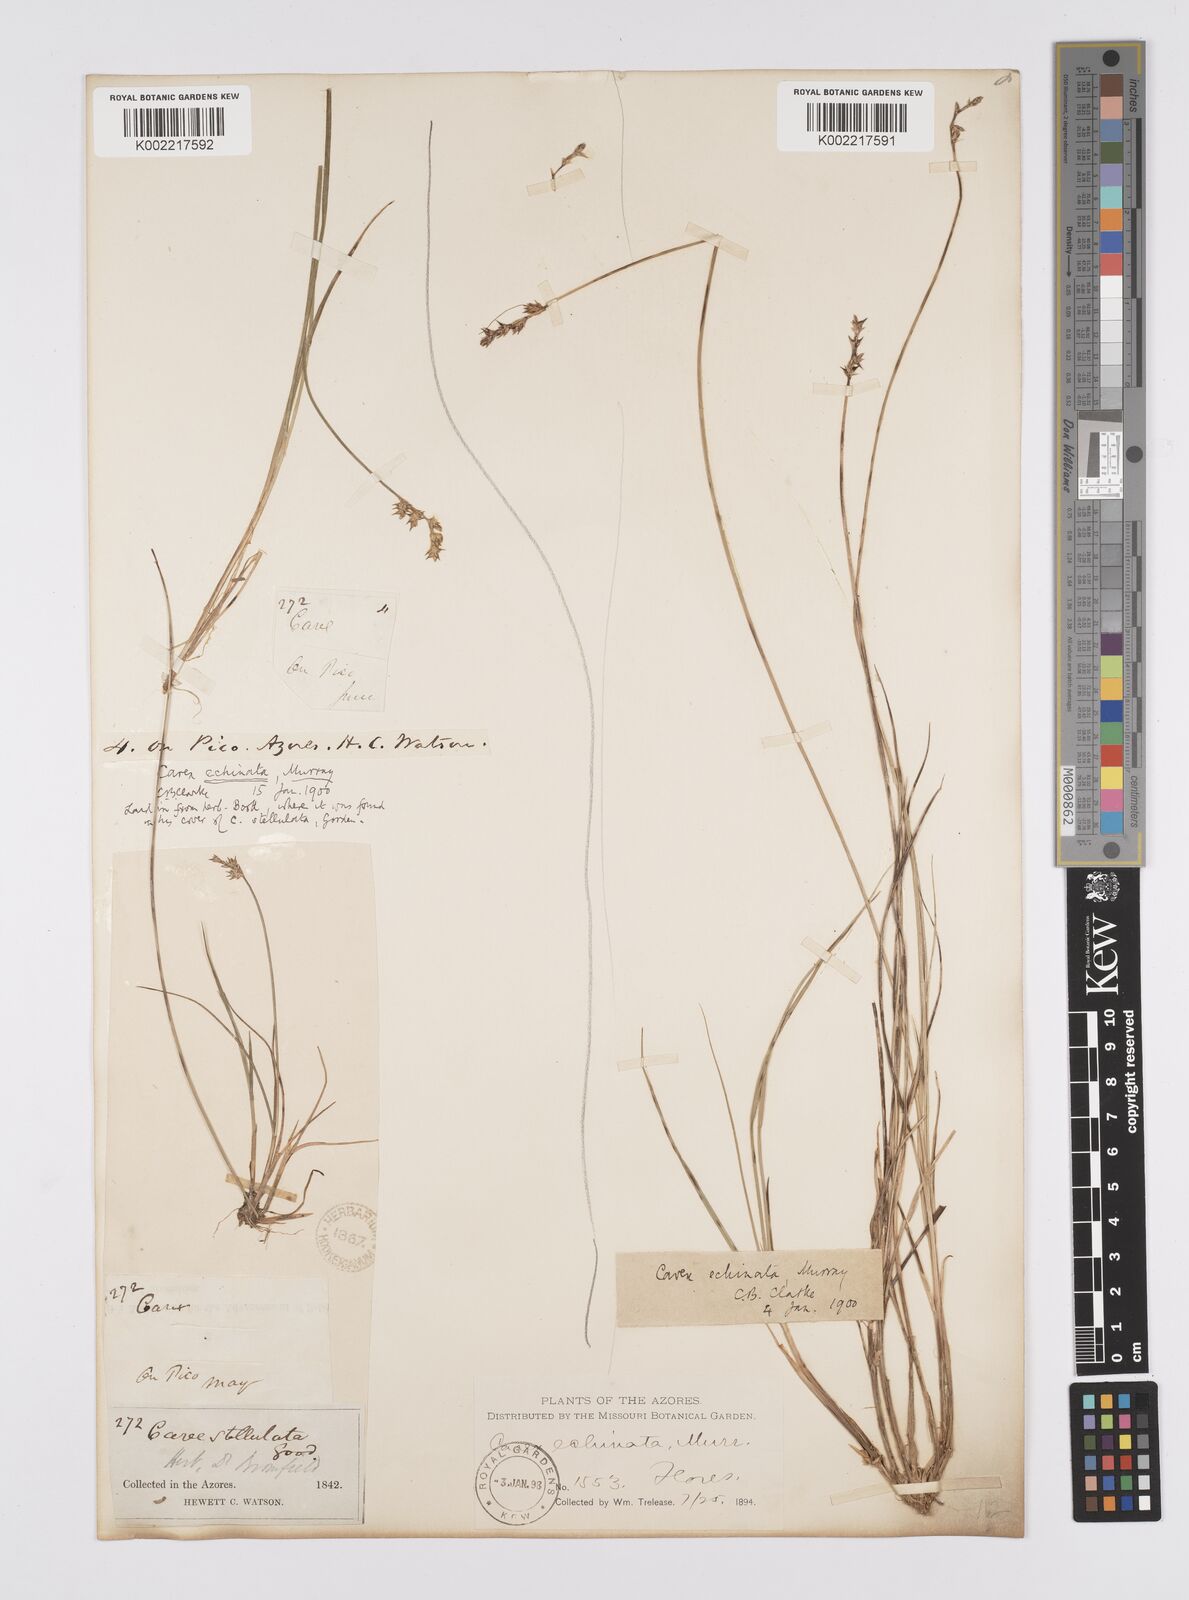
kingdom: Plantae
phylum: Tracheophyta
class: Liliopsida
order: Poales
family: Cyperaceae
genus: Carex
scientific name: Carex echinata
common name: Star sedge
